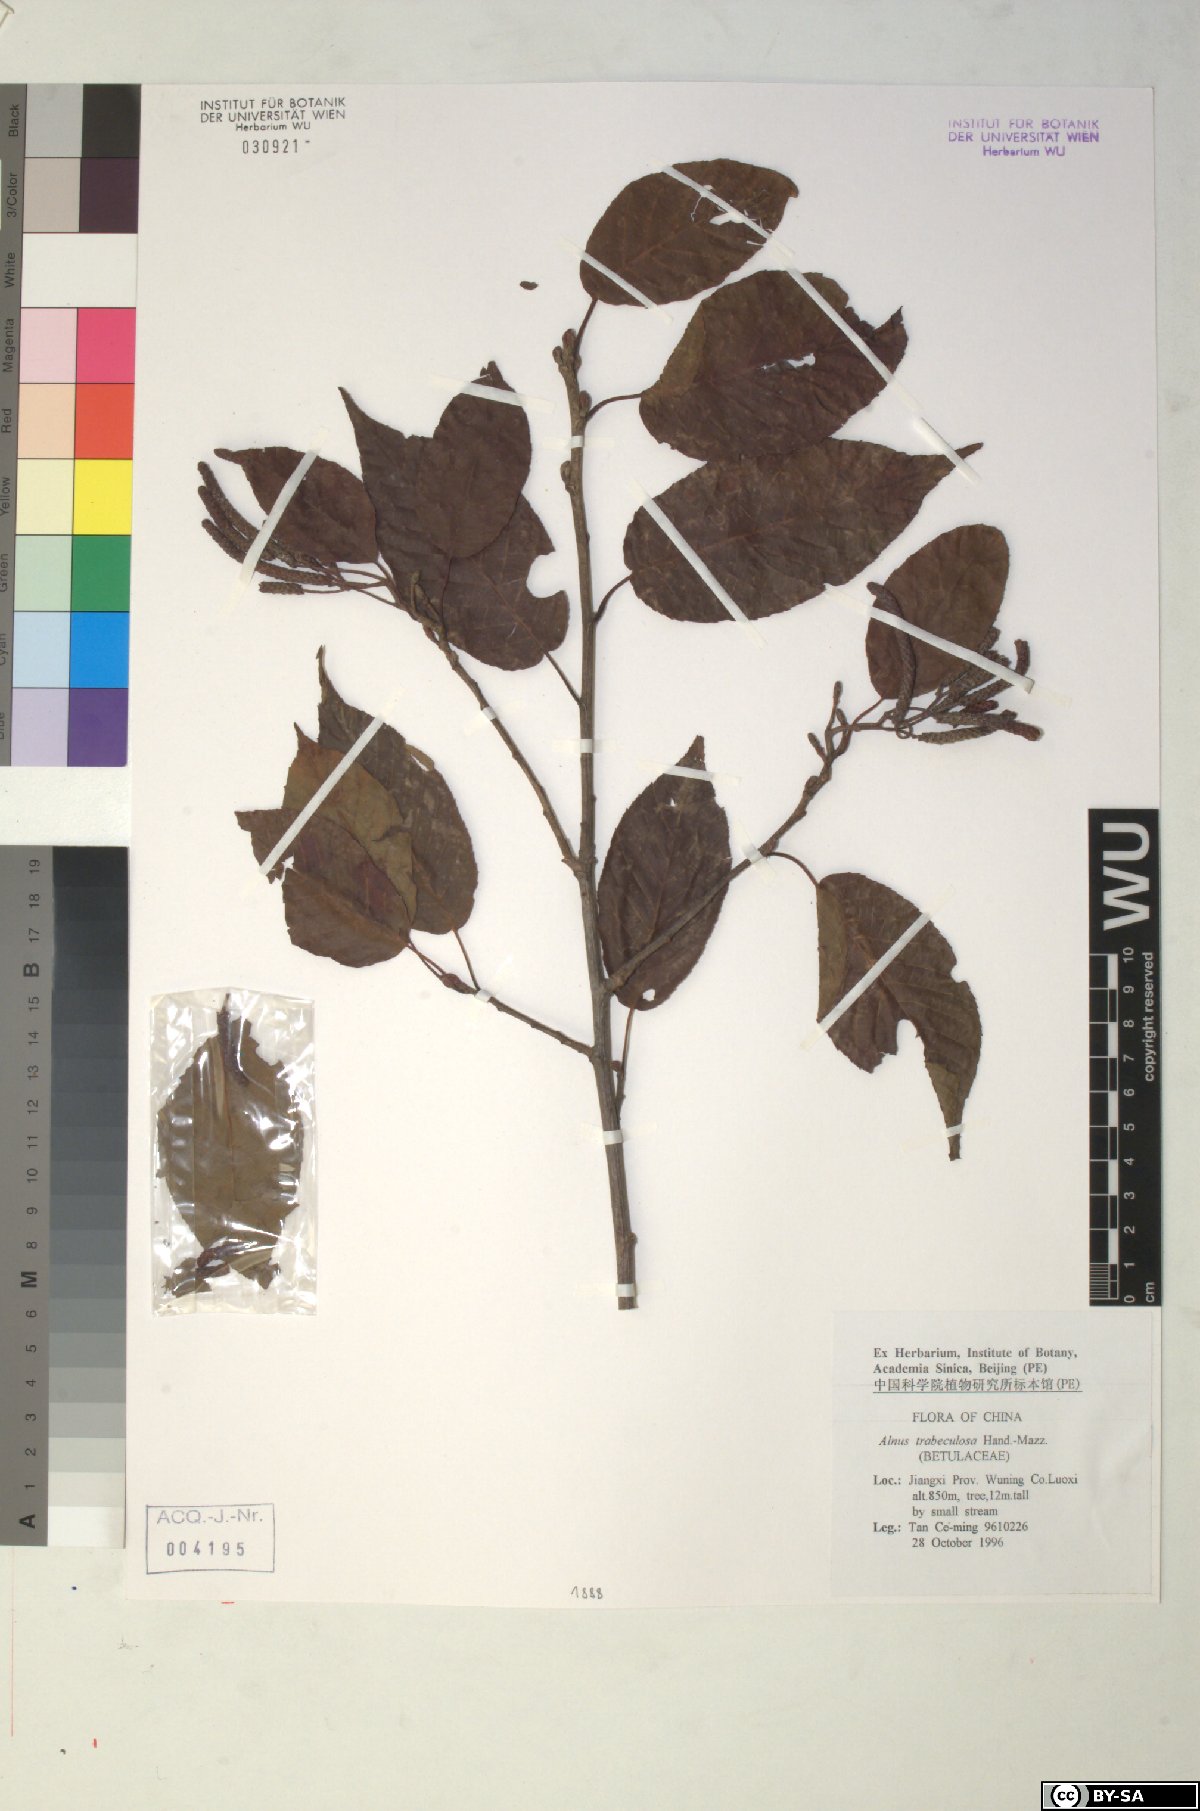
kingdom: Plantae
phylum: Tracheophyta
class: Magnoliopsida
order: Fagales
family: Betulaceae
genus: Alnus
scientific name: Alnus trabeculosa
